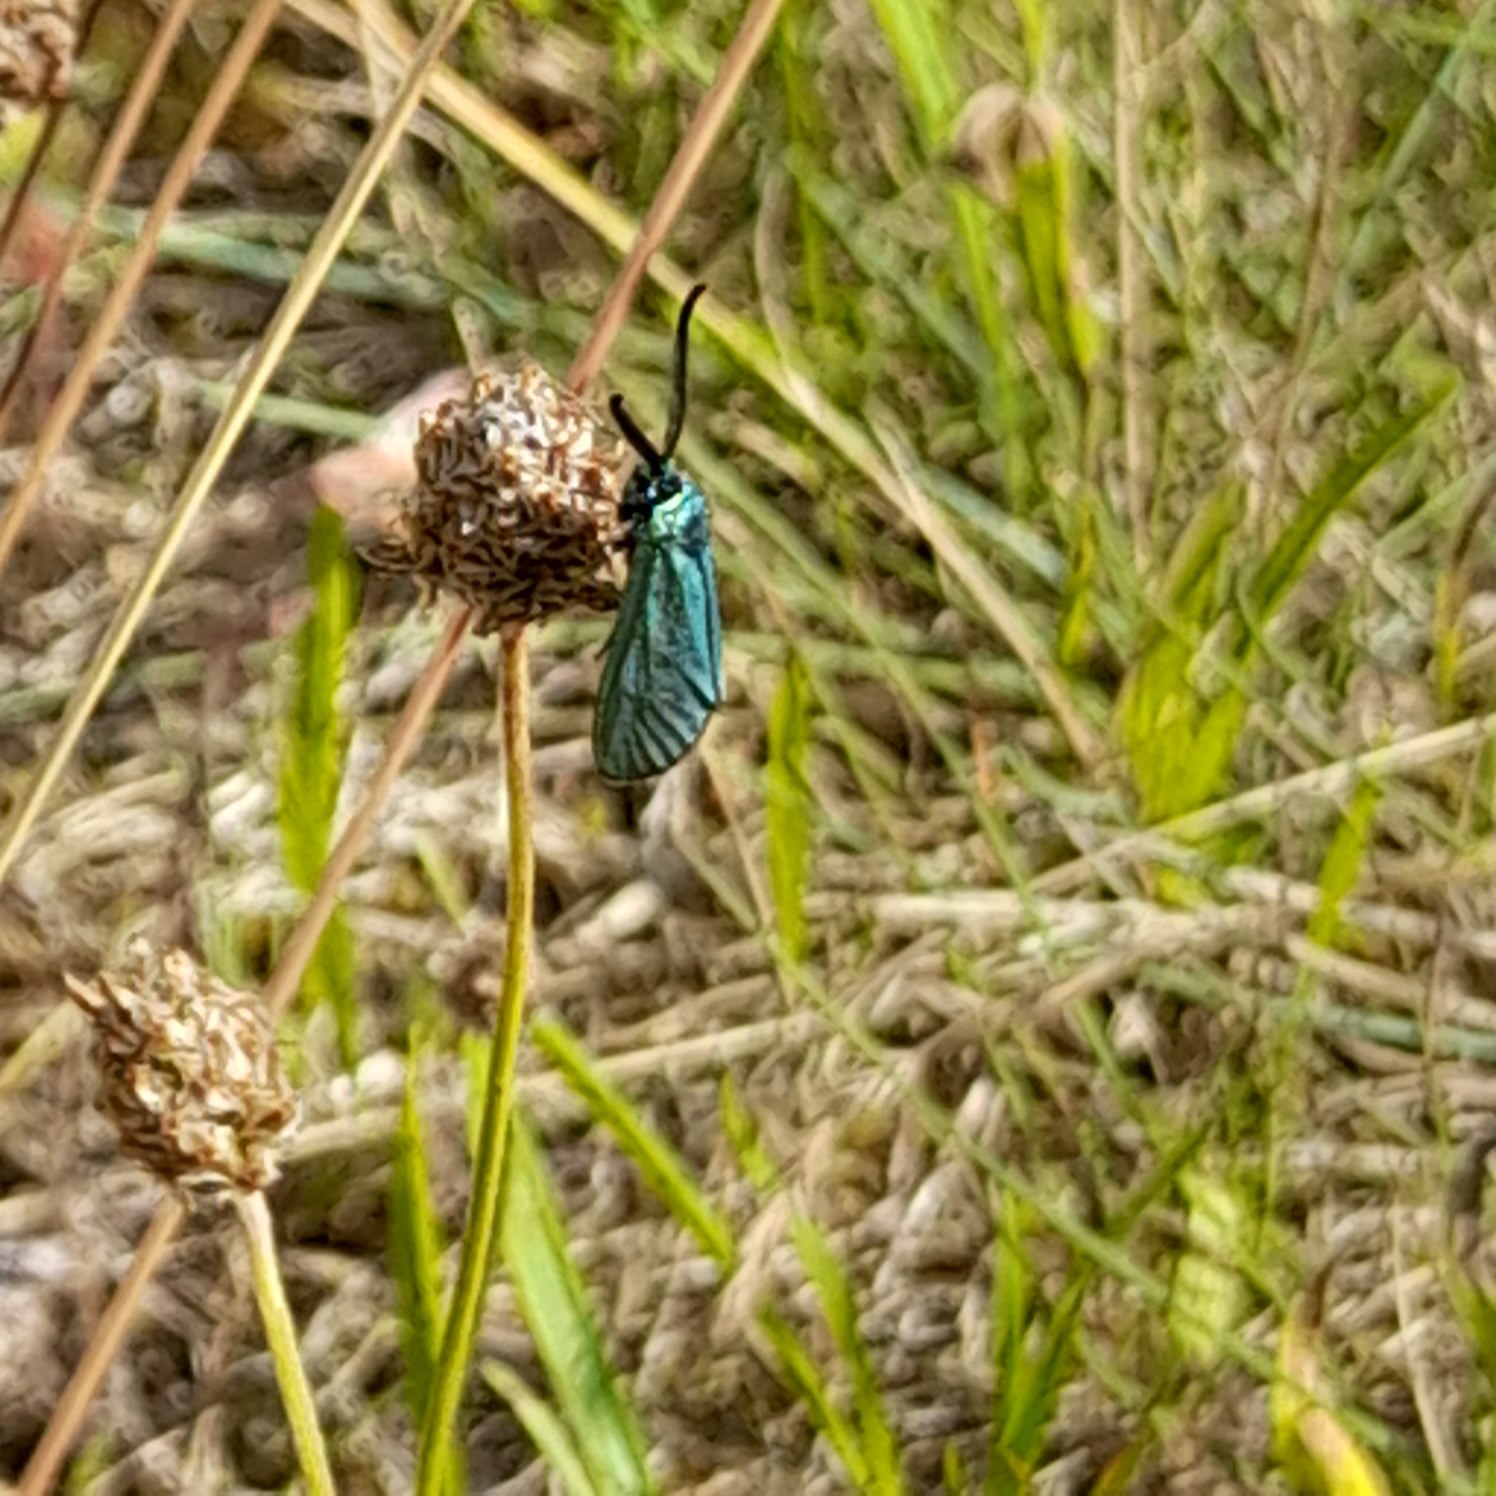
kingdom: Animalia
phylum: Arthropoda
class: Insecta
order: Lepidoptera
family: Zygaenidae
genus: Adscita
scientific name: Adscita statices
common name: Metalvinge
